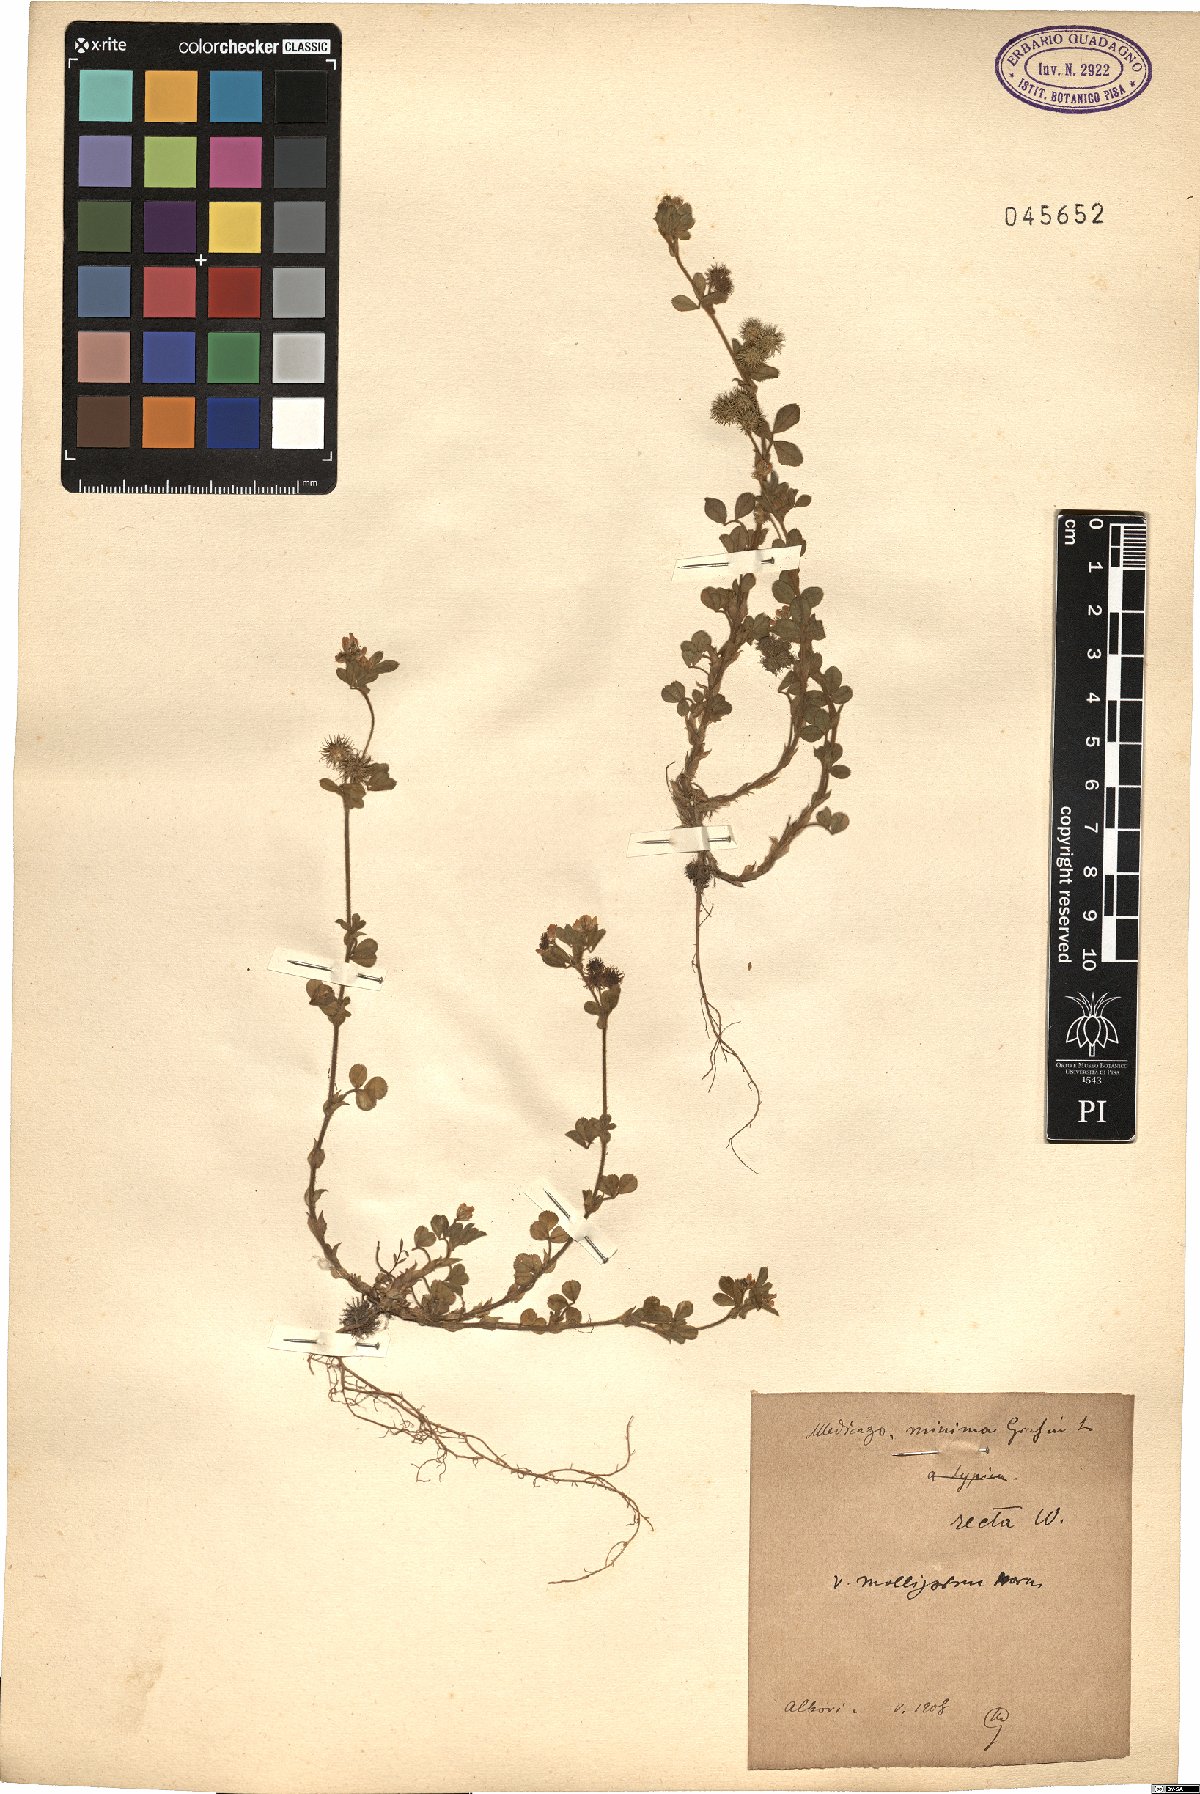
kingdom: Plantae
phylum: Tracheophyta
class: Magnoliopsida
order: Fabales
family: Fabaceae
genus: Medicago
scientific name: Medicago minima
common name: Little bur-clover
